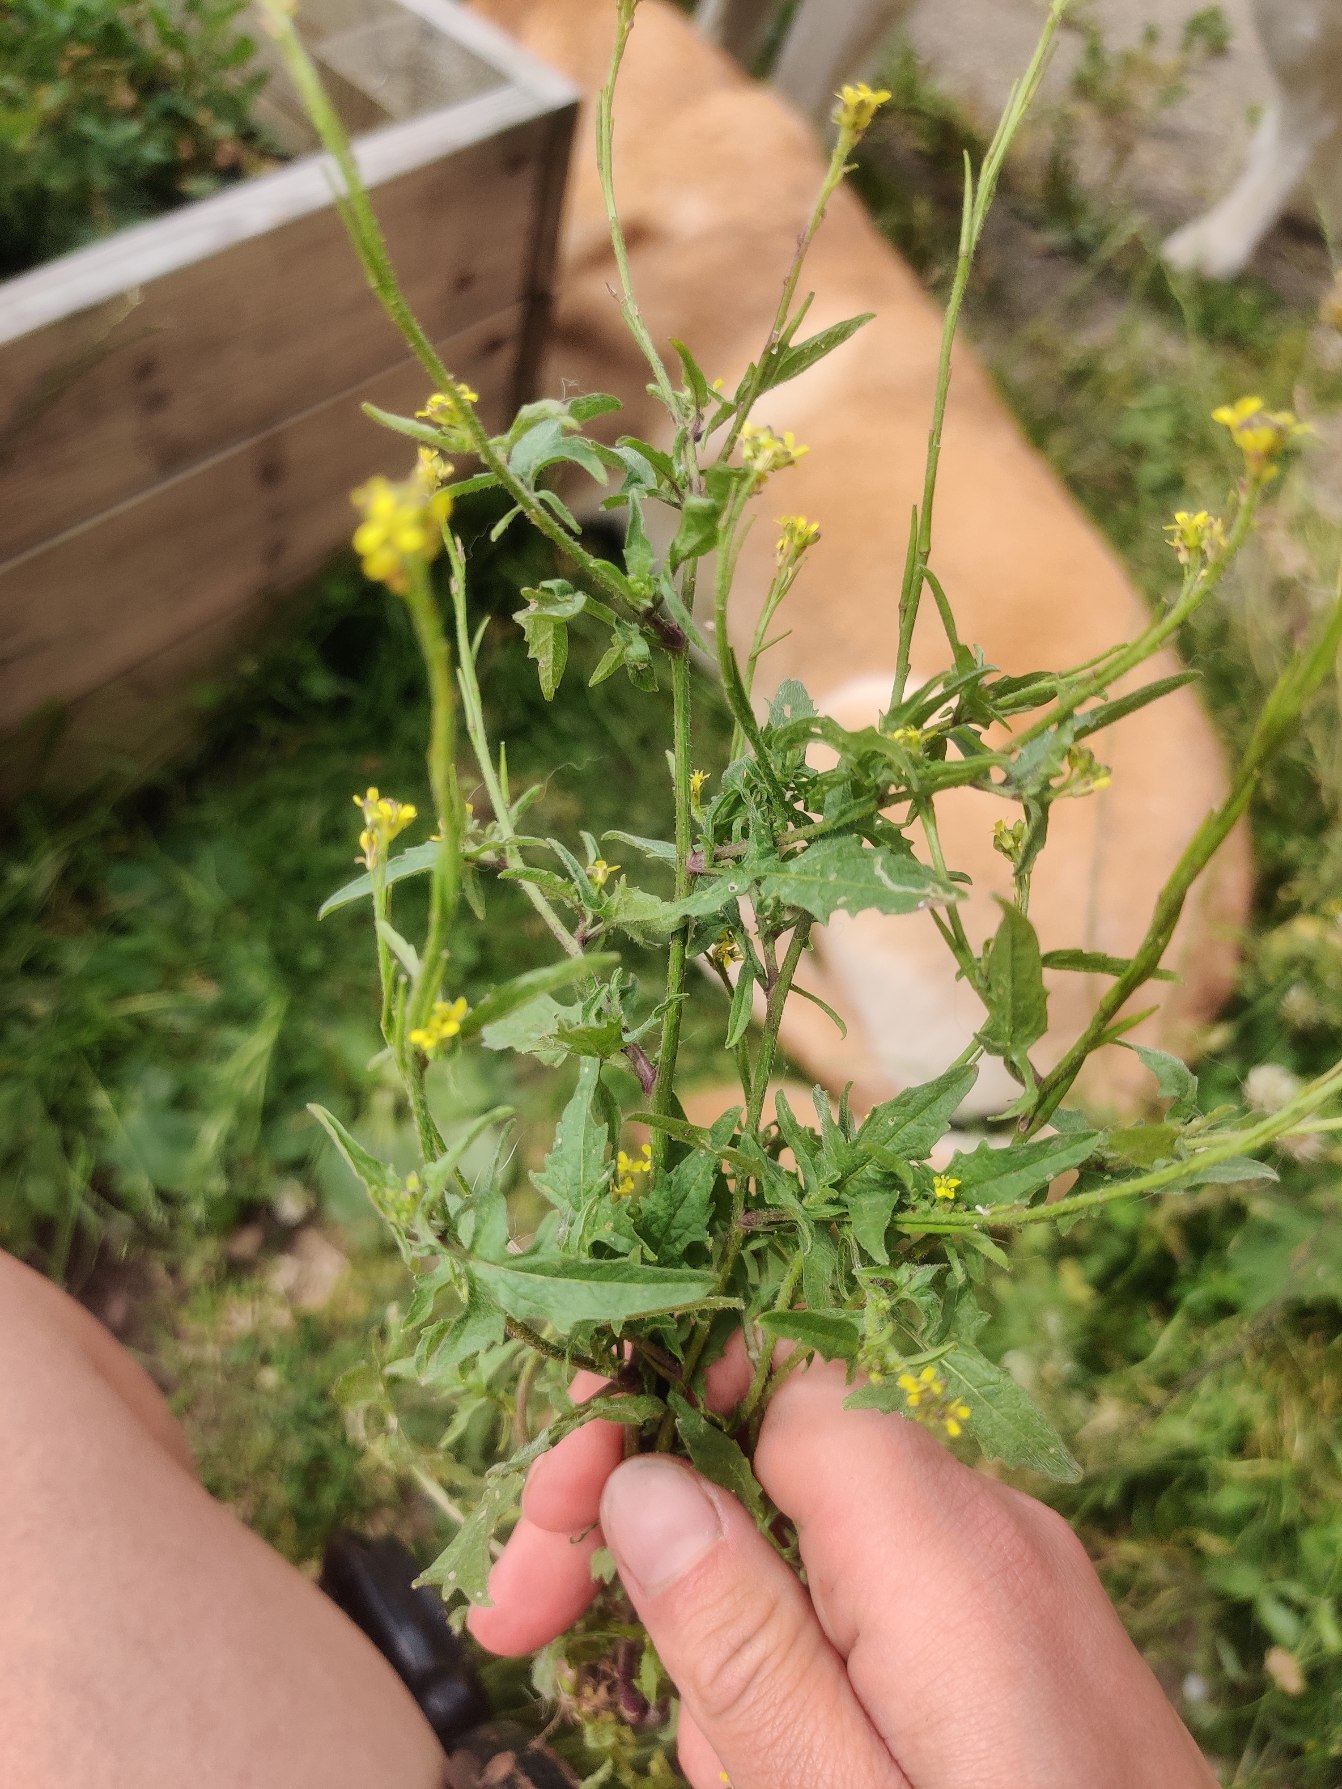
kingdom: Plantae
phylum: Tracheophyta
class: Magnoliopsida
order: Brassicales
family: Brassicaceae
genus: Sisymbrium
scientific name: Sisymbrium officinale
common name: Rank vejsennep
